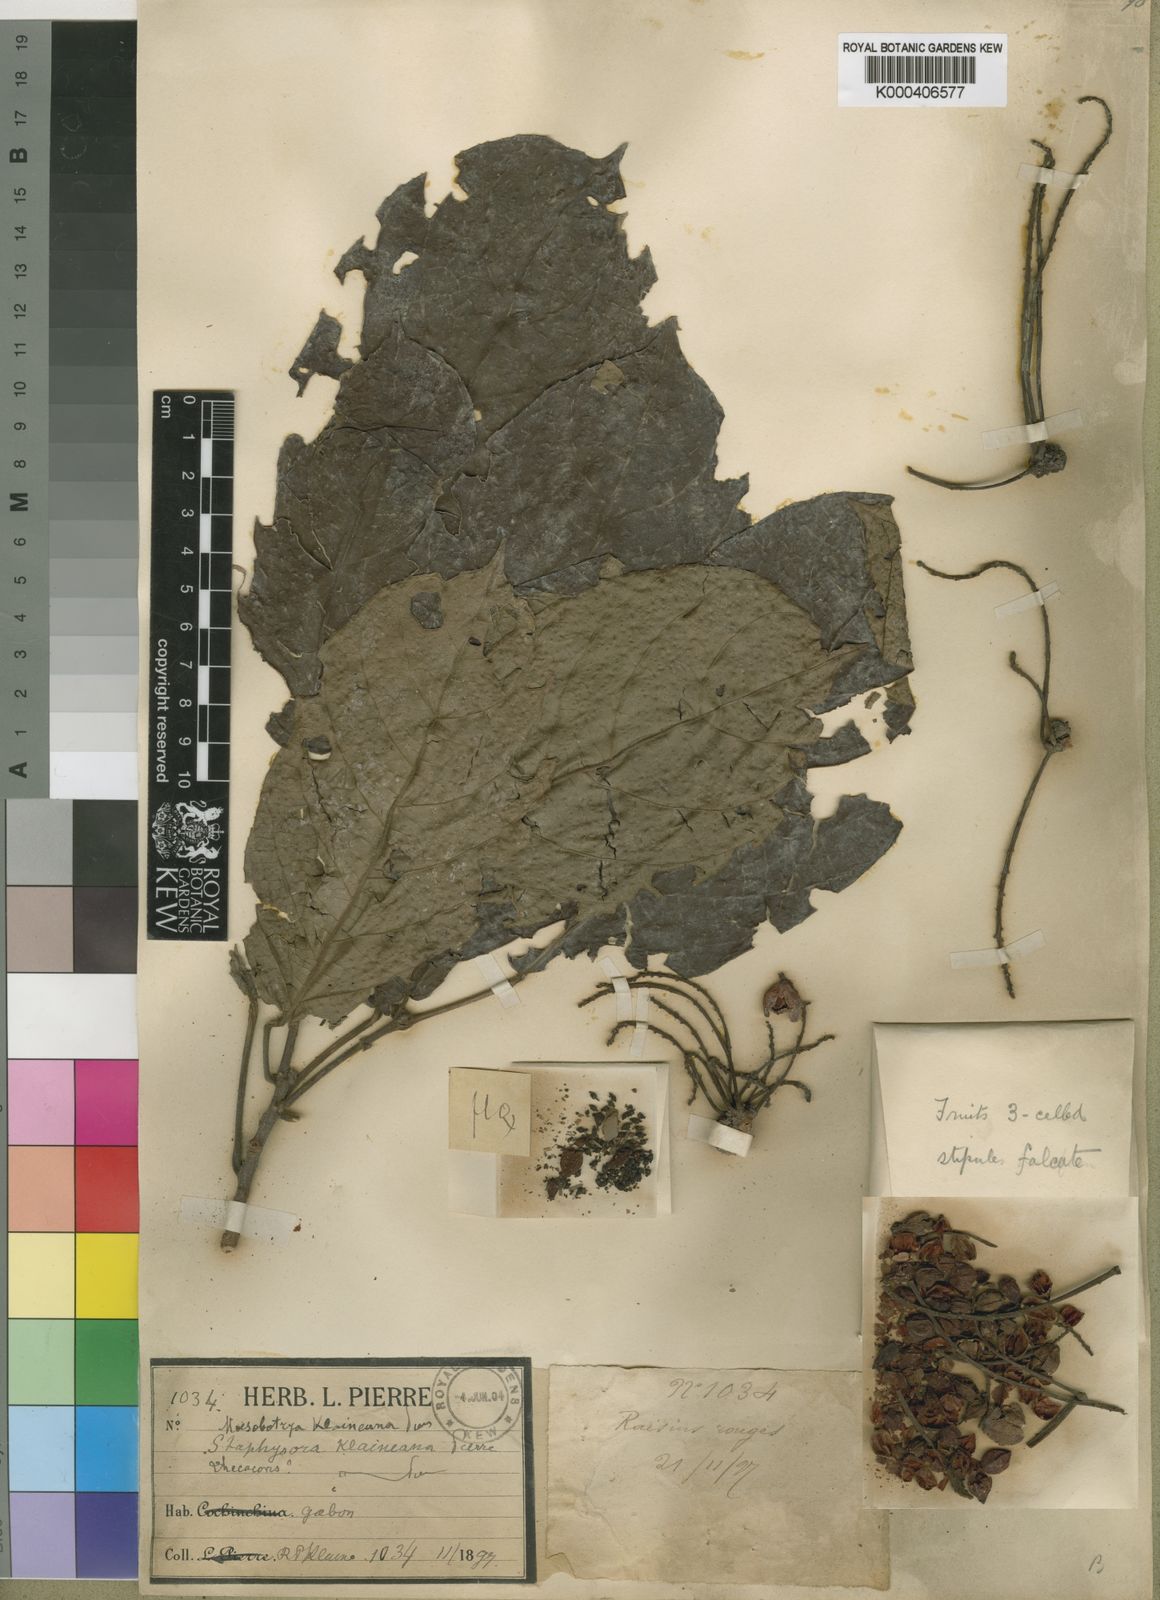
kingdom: Plantae
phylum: Tracheophyta
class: Magnoliopsida
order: Malpighiales
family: Phyllanthaceae
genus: Maesobotrya
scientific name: Maesobotrya
